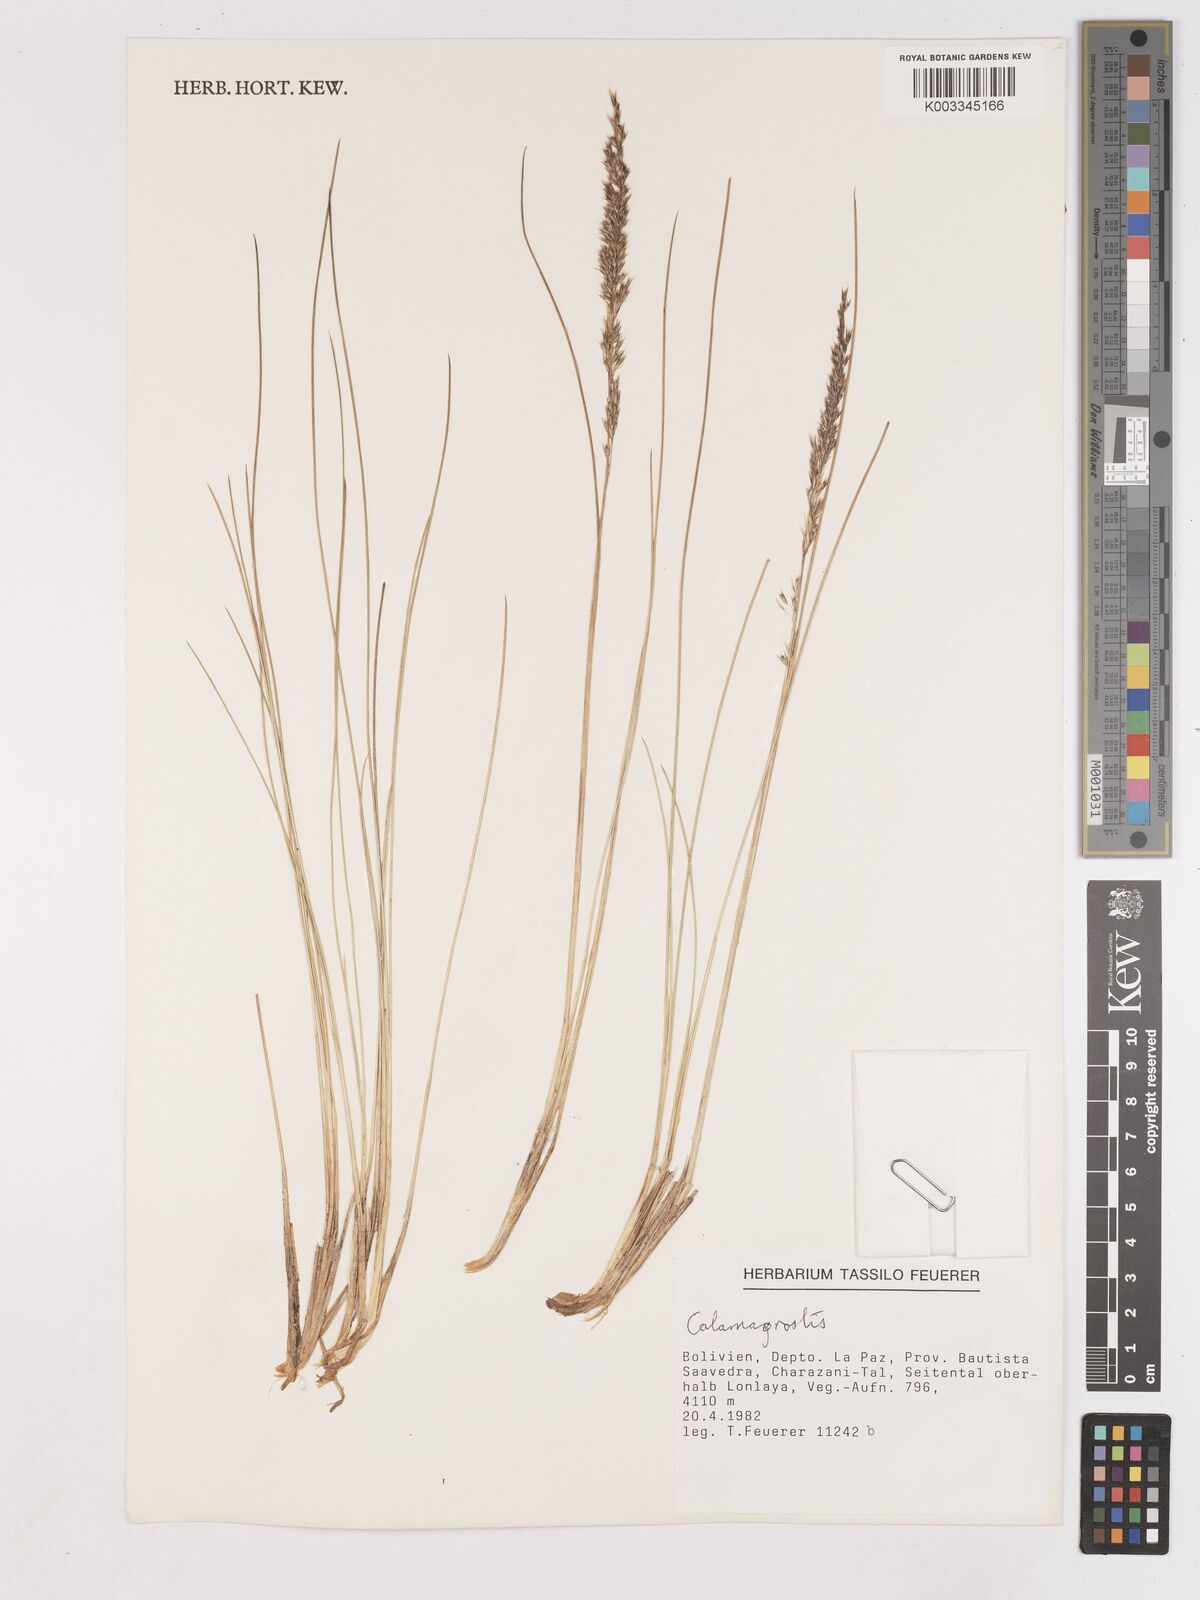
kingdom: Plantae
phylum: Tracheophyta
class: Liliopsida
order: Poales
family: Poaceae
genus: Calamagrostis
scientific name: Calamagrostis
